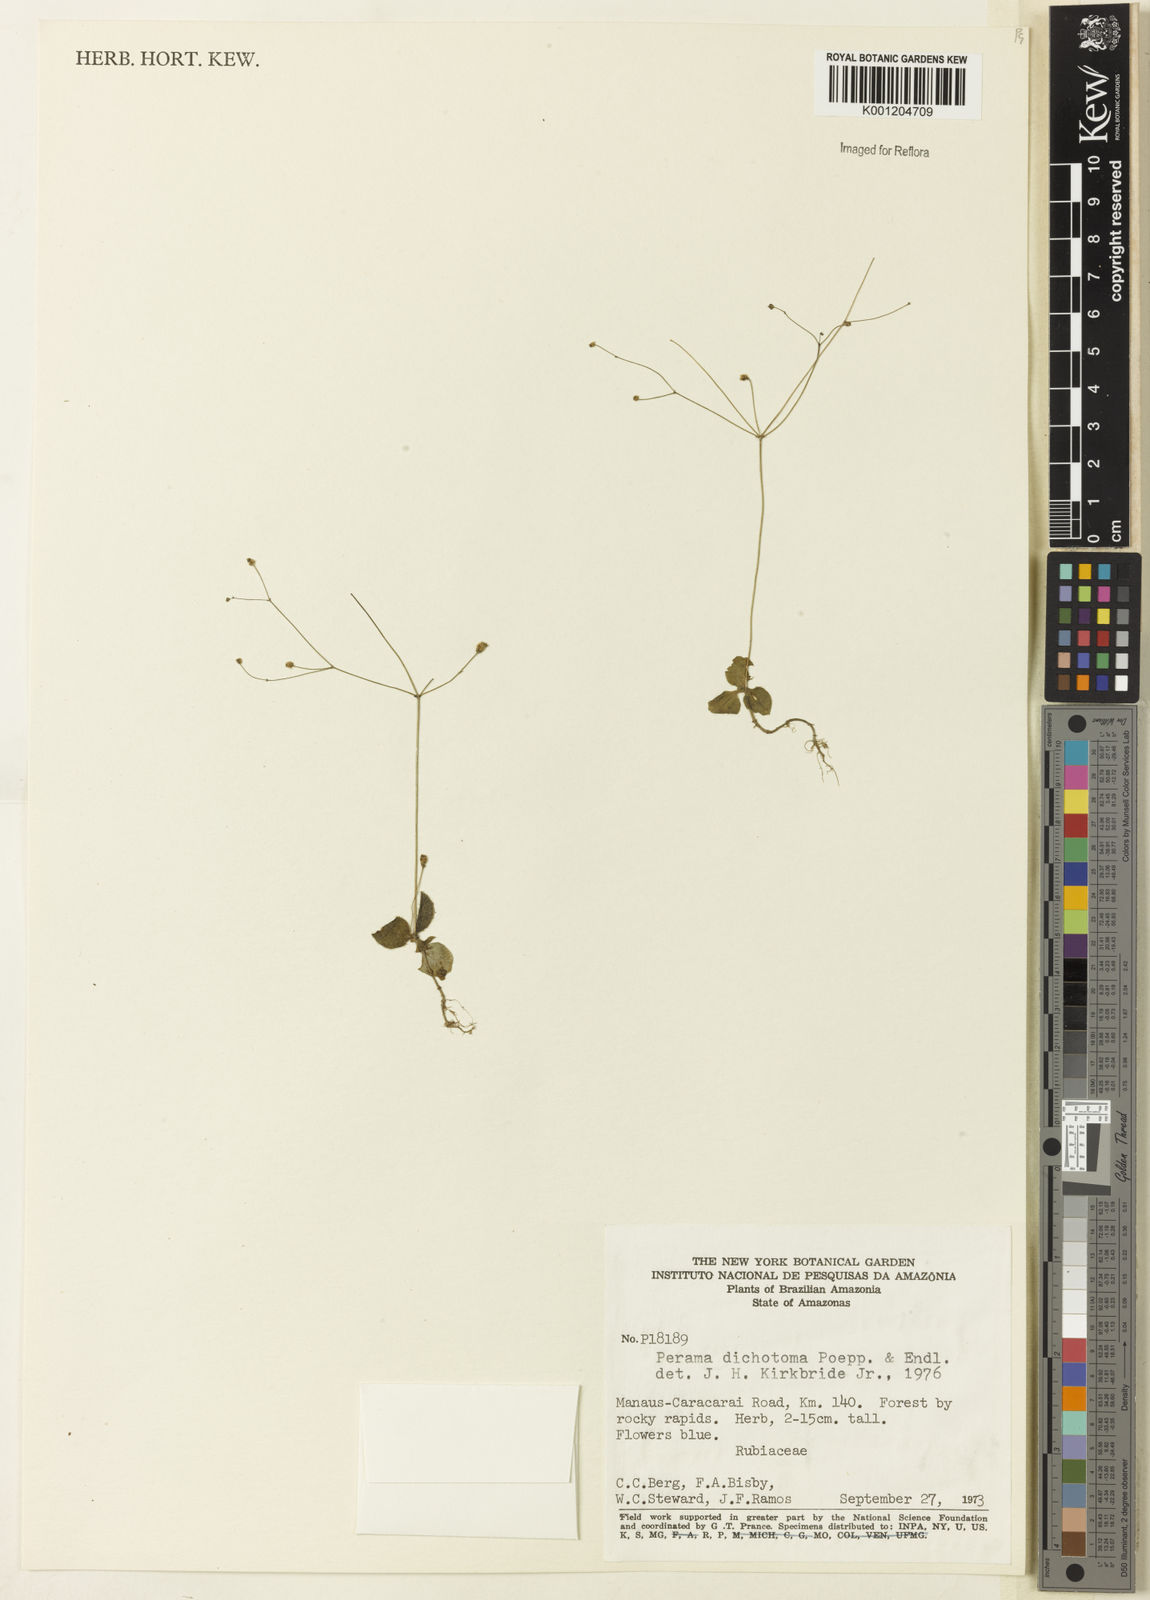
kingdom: Plantae
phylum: Tracheophyta
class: Magnoliopsida
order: Gentianales
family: Rubiaceae
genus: Perama
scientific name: Perama dichotoma
